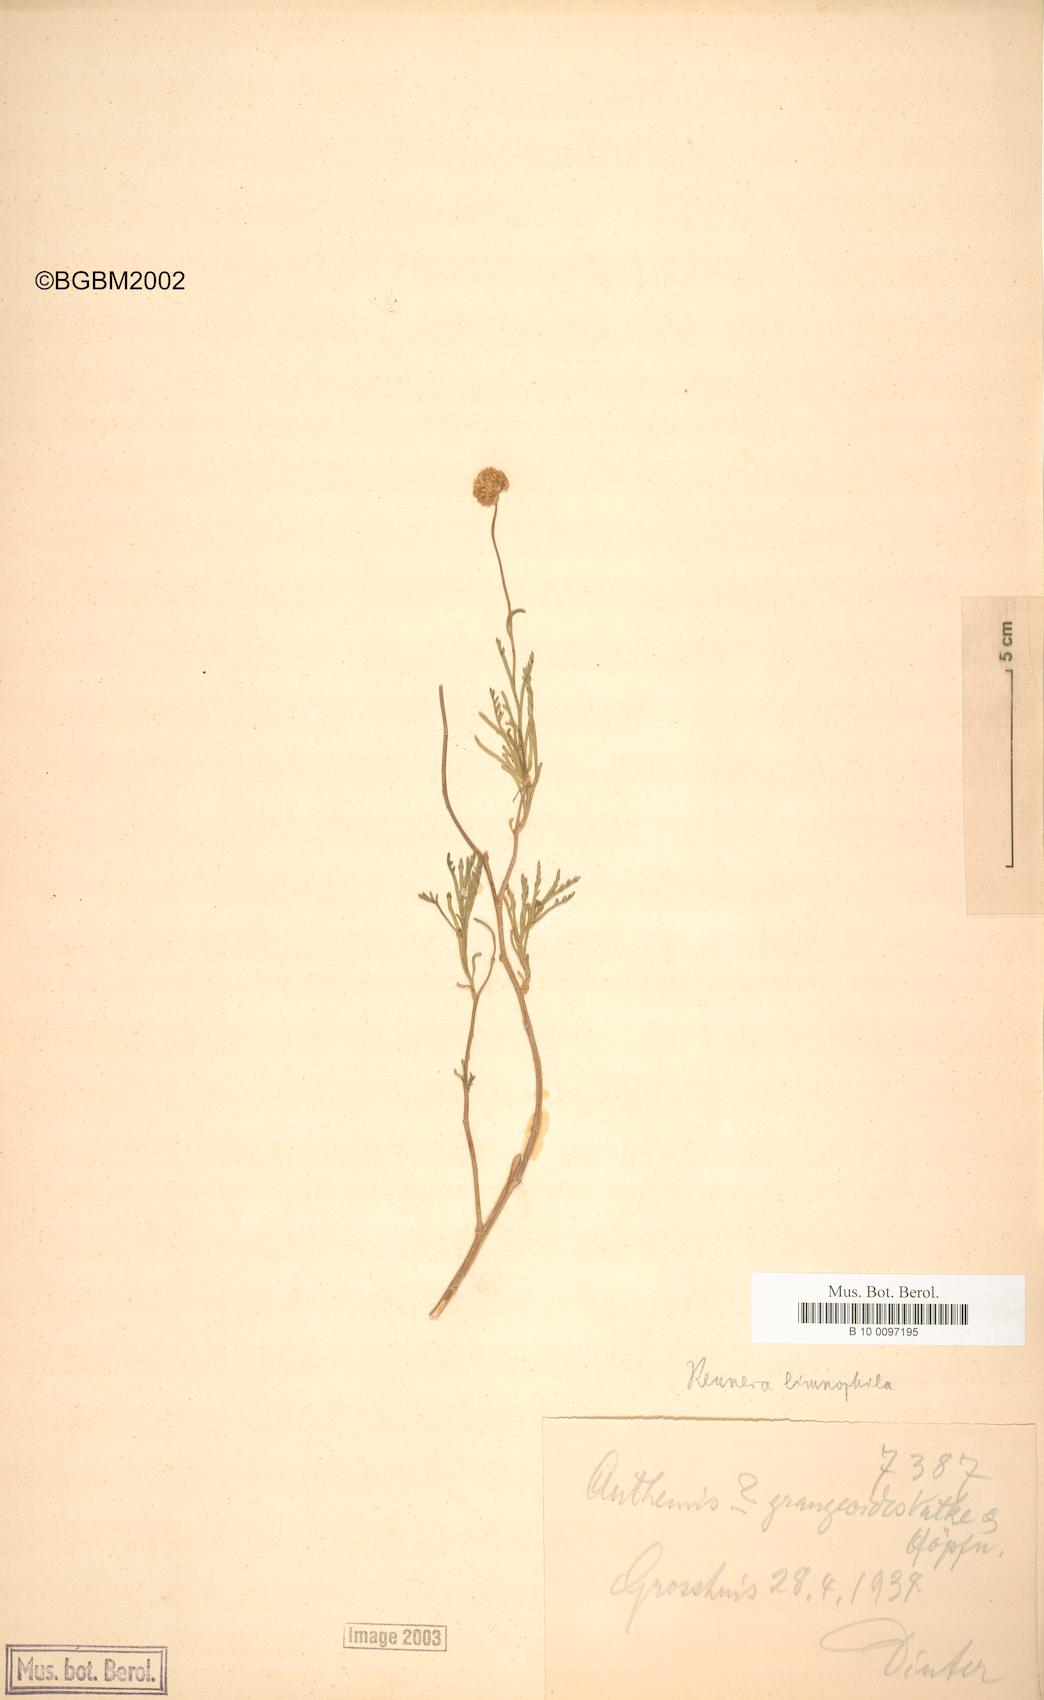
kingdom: Plantae
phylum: Tracheophyta
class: Magnoliopsida
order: Asterales
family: Asteraceae
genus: Pentzia
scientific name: Pentzia limnophila
